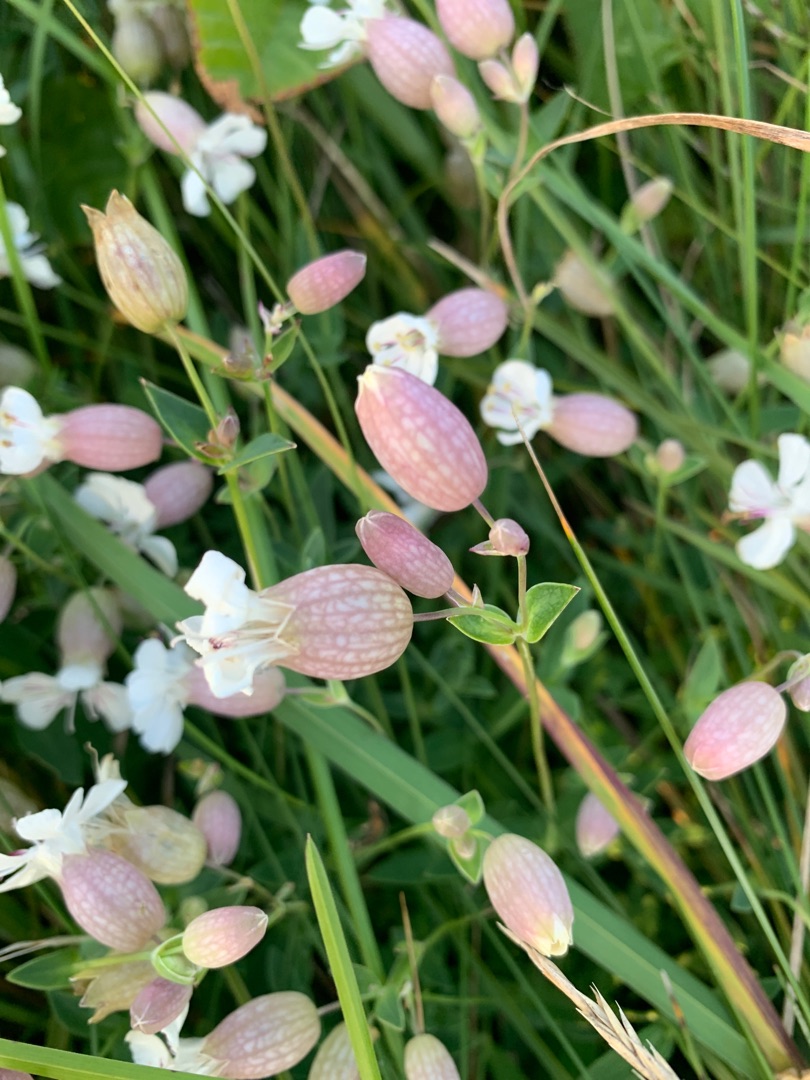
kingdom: Plantae
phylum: Tracheophyta
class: Magnoliopsida
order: Caryophyllales
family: Caryophyllaceae
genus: Silene
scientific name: Silene uniflora
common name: Strand-limurt
